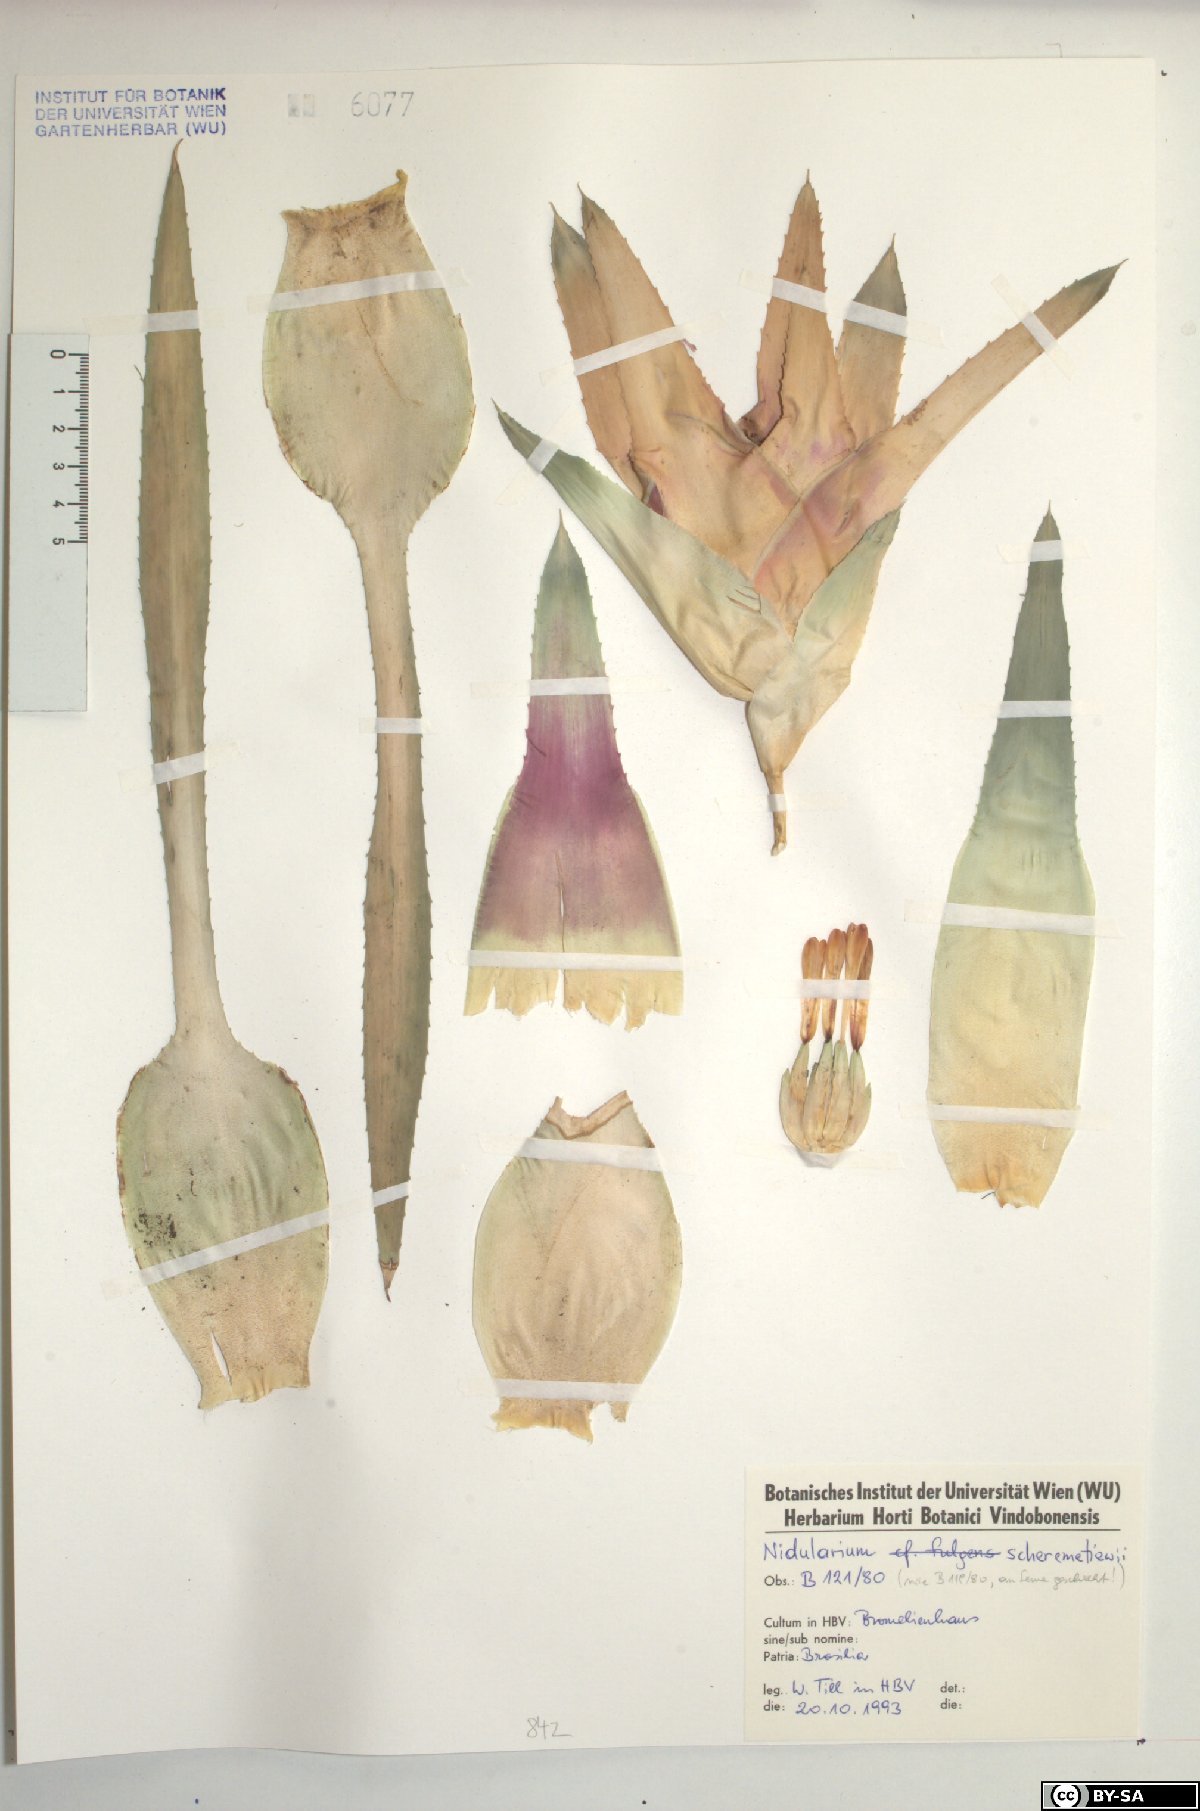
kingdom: Plantae
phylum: Tracheophyta
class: Liliopsida
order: Poales
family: Bromeliaceae
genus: Nidularium
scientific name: Nidularium scheremetiewii
